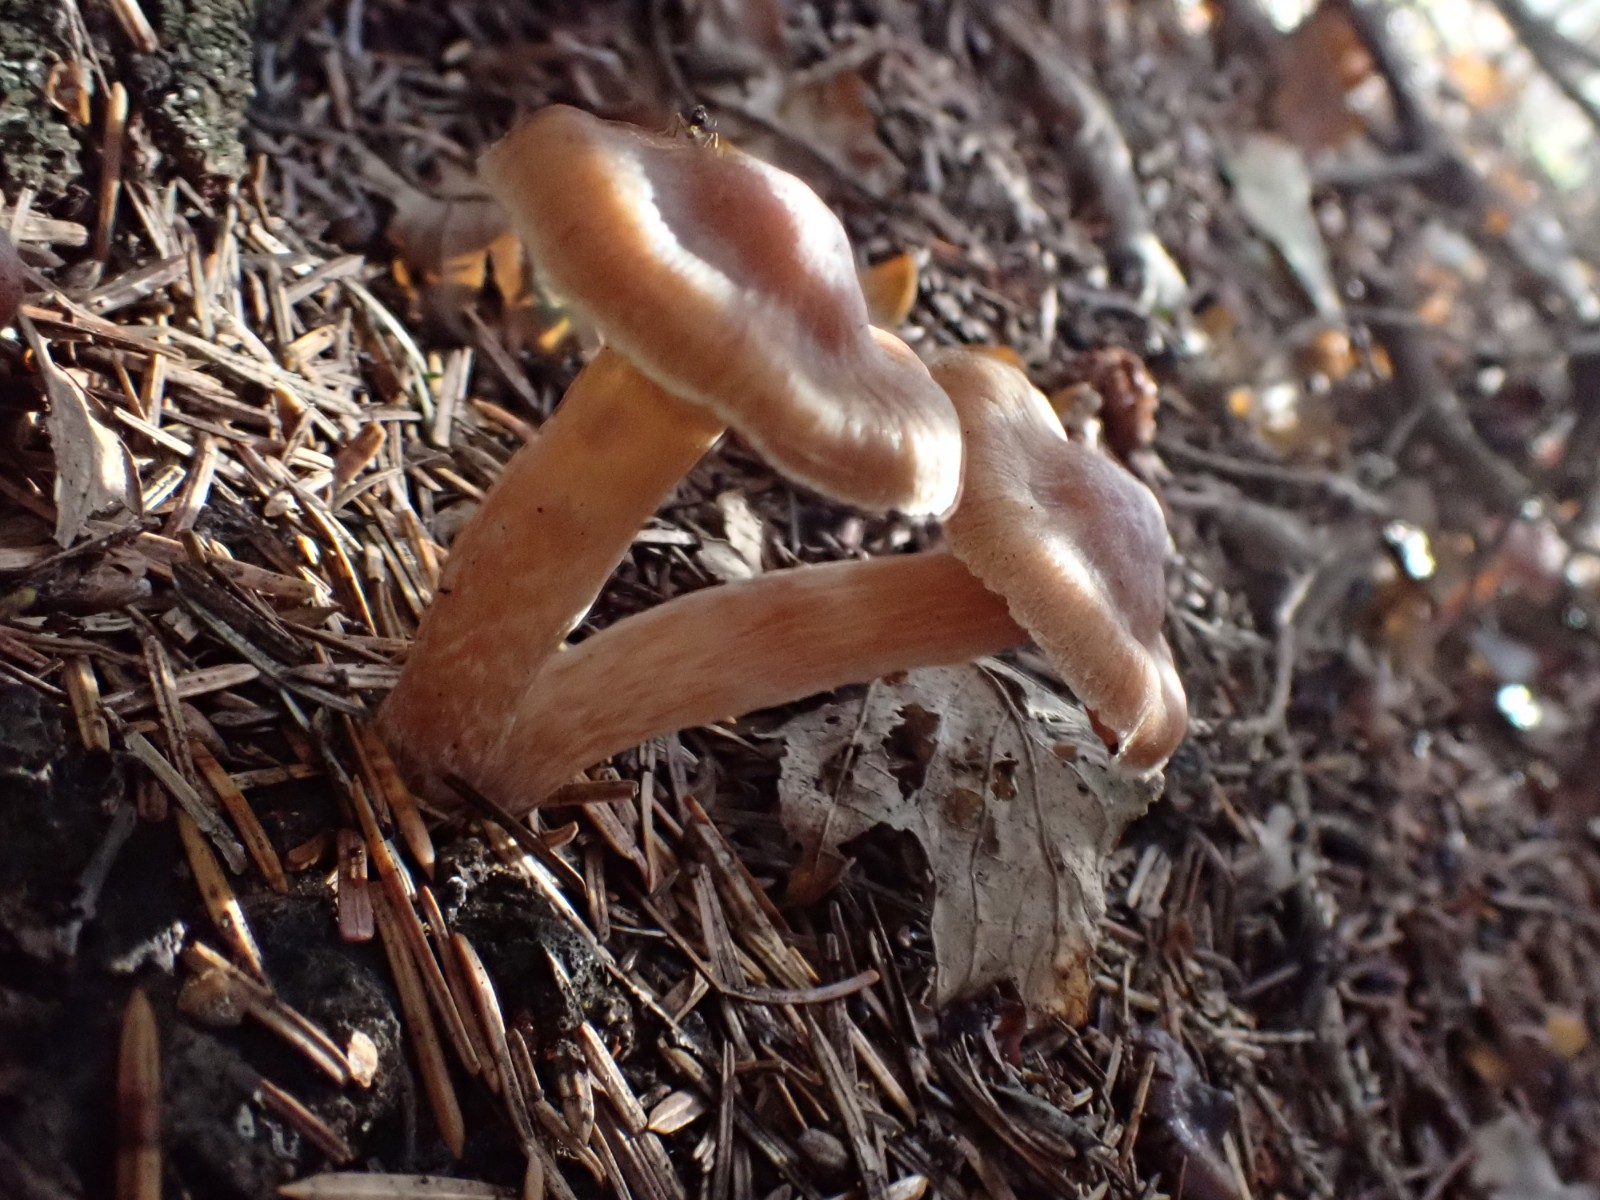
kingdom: Fungi
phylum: Basidiomycota
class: Agaricomycetes
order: Agaricales
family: Cortinariaceae
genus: Cortinarius
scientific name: Cortinarius
